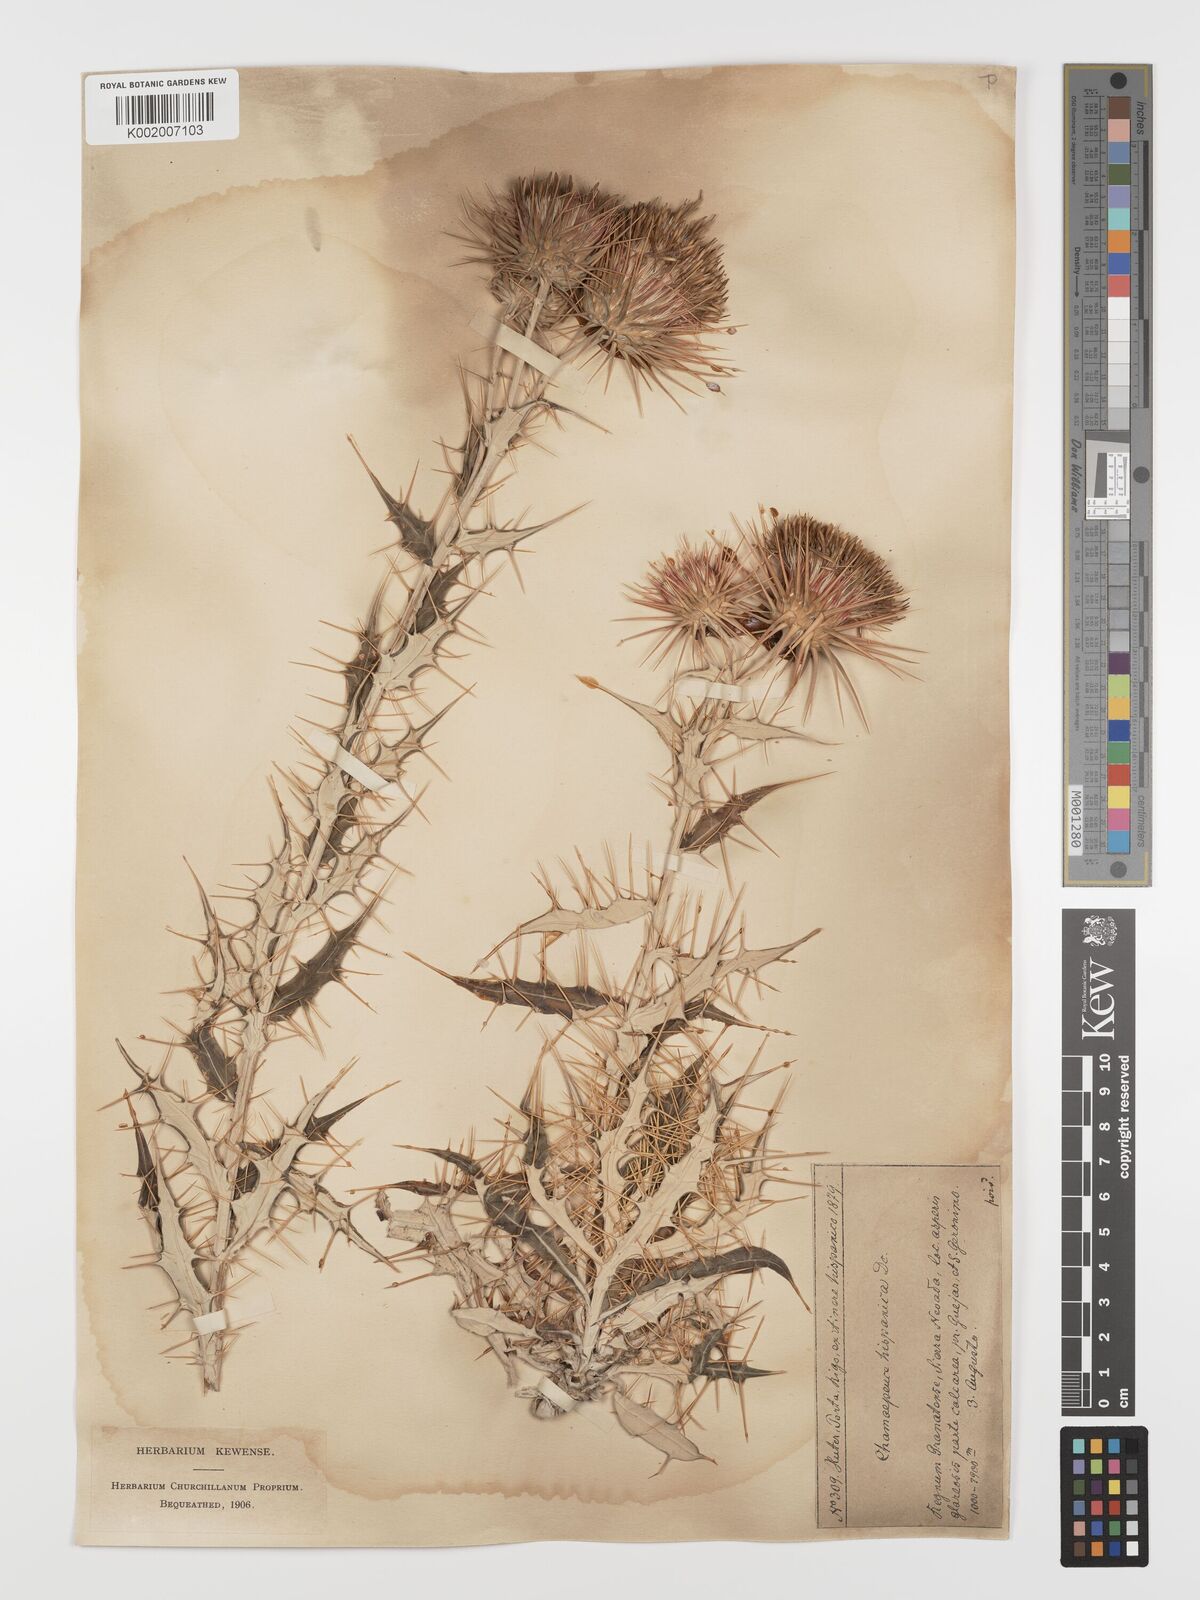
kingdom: Plantae
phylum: Tracheophyta
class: Magnoliopsida
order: Asterales
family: Asteraceae
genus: Ptilostemon
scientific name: Ptilostemon hispanicus
